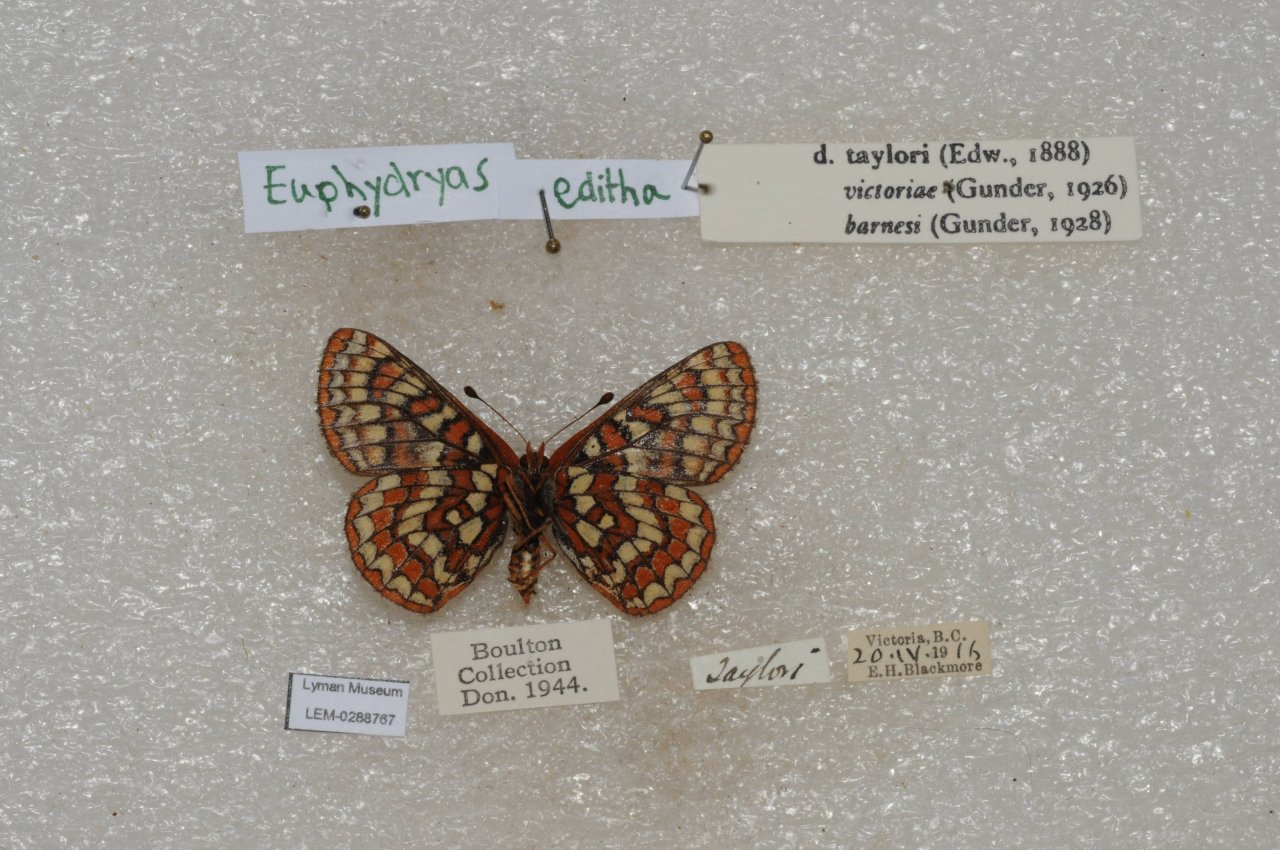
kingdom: Animalia
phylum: Arthropoda
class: Insecta
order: Lepidoptera
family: Nymphalidae
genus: Occidryas
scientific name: Occidryas editha
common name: Edith's Checkerspot
